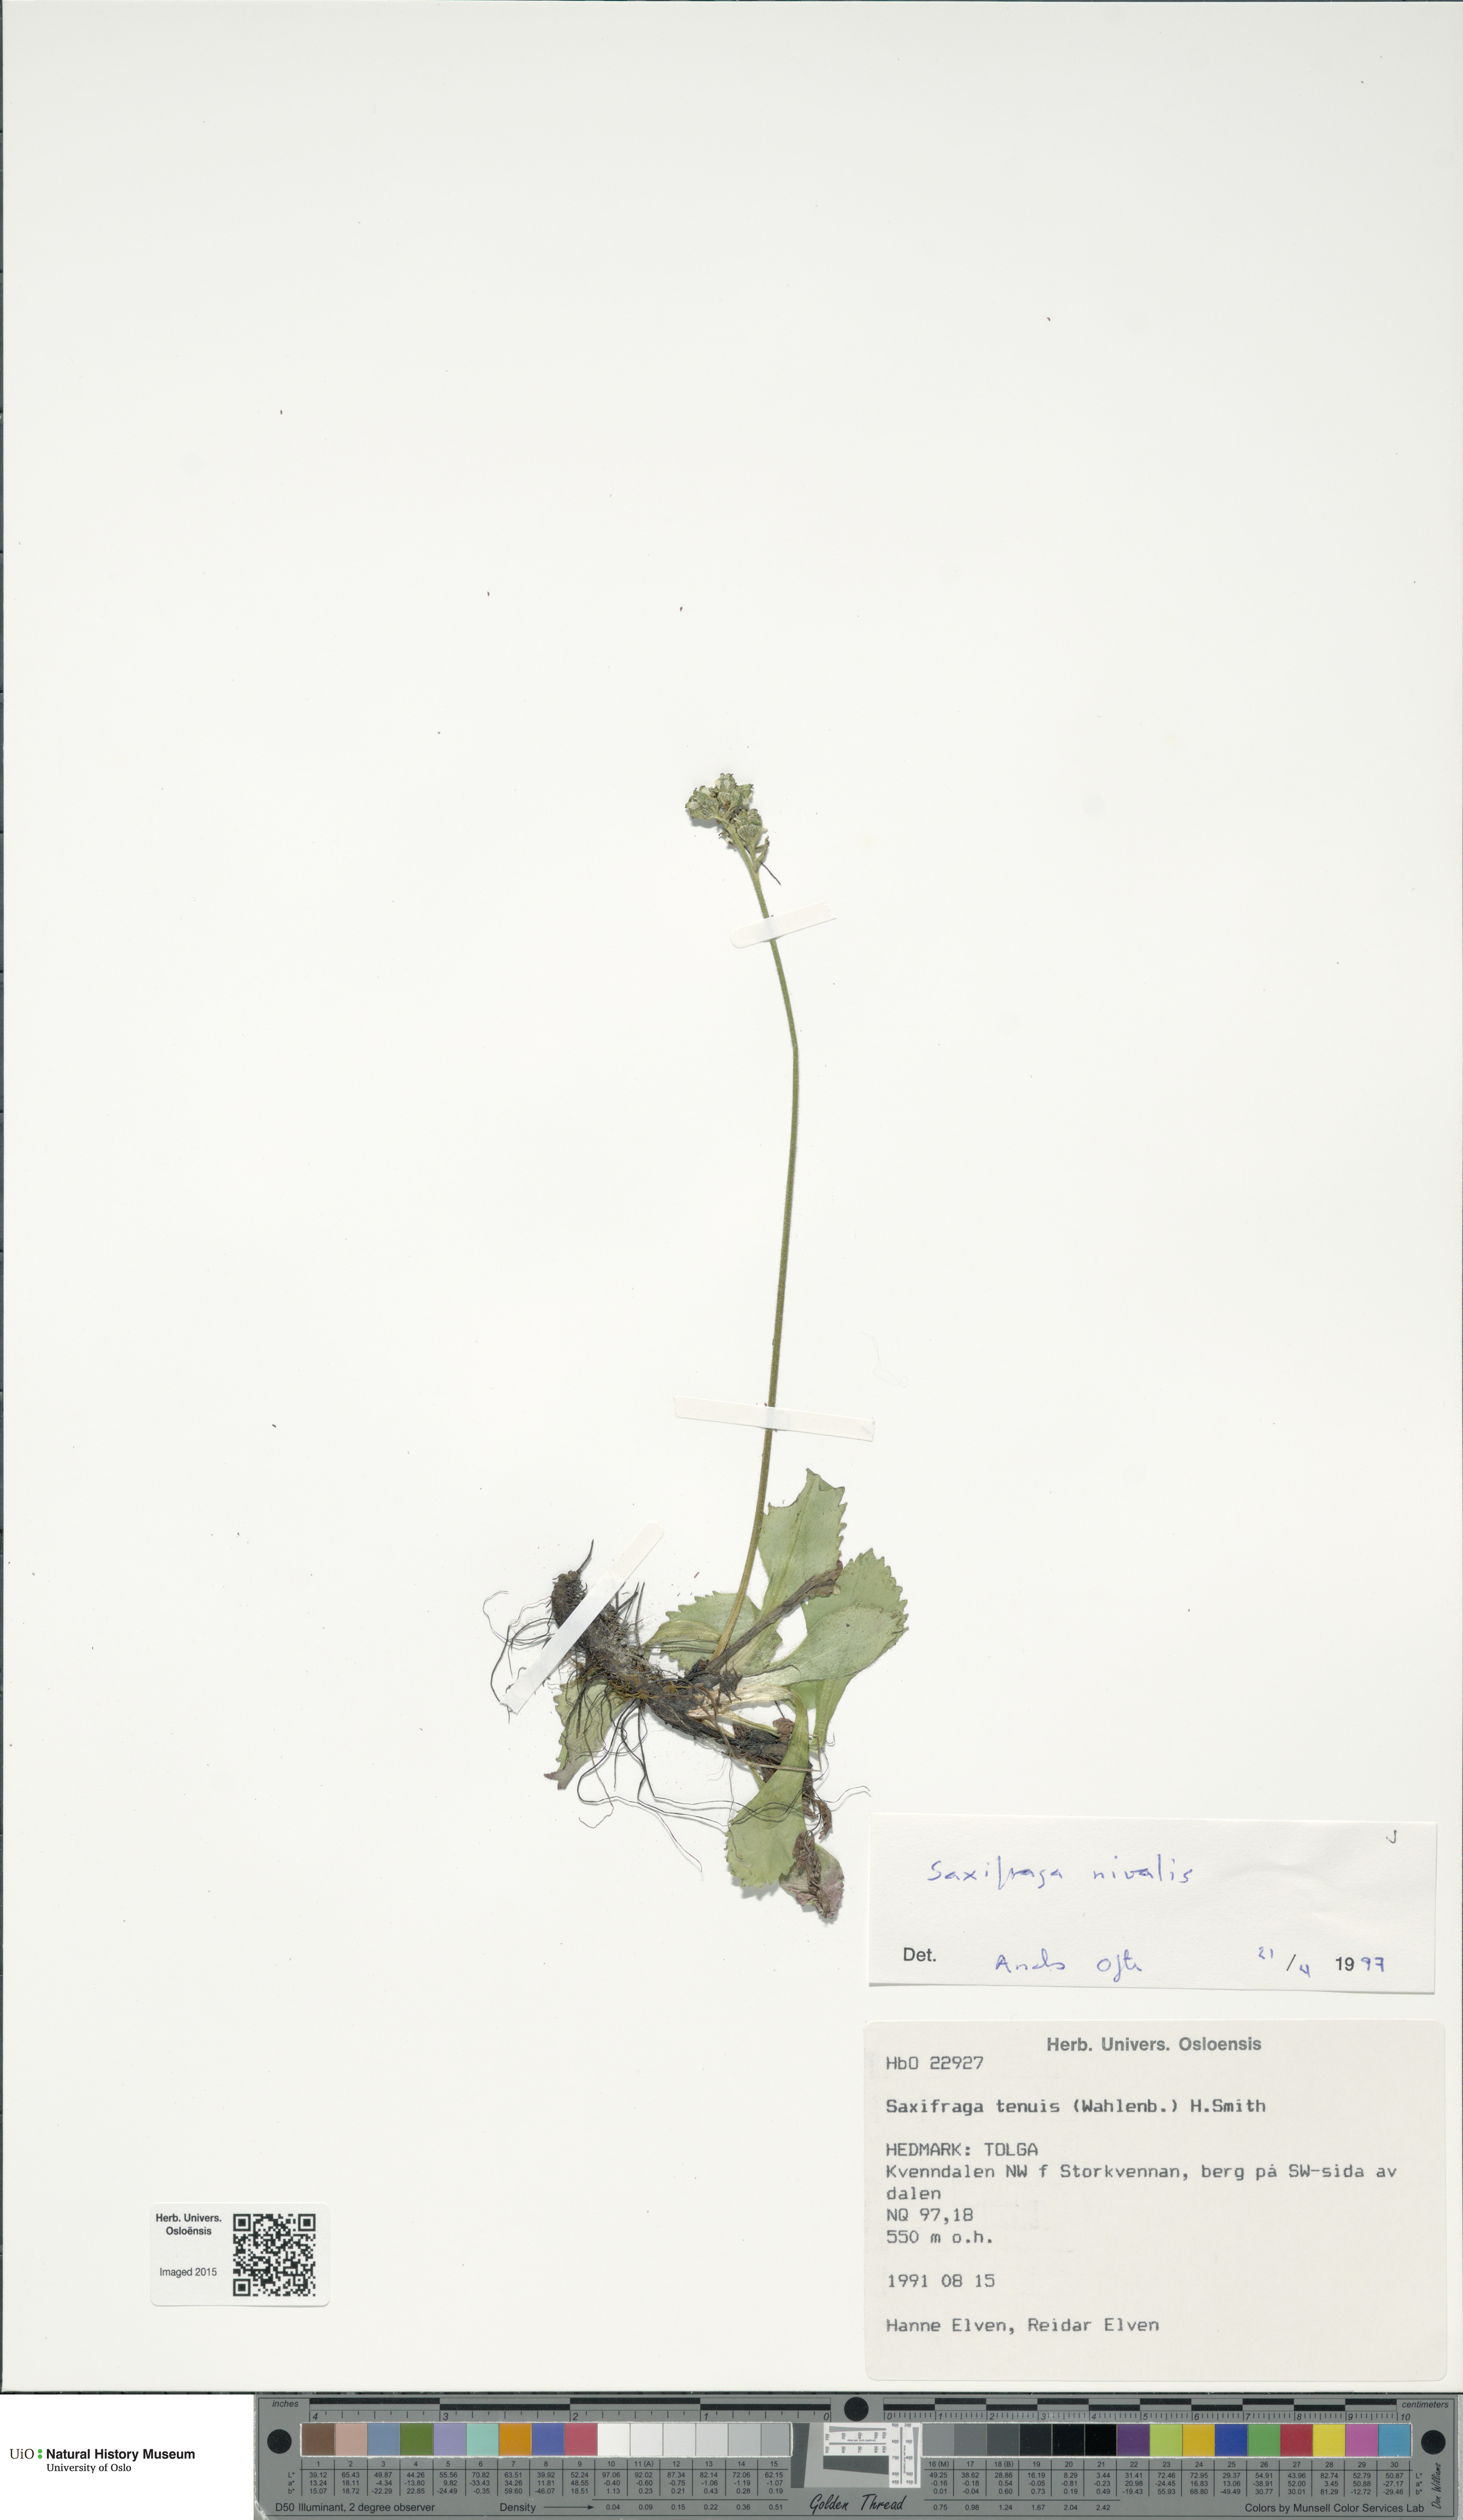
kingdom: Plantae
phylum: Tracheophyta
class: Magnoliopsida
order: Saxifragales
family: Saxifragaceae
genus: Micranthes
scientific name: Micranthes nivalis
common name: Alpine saxifrage
